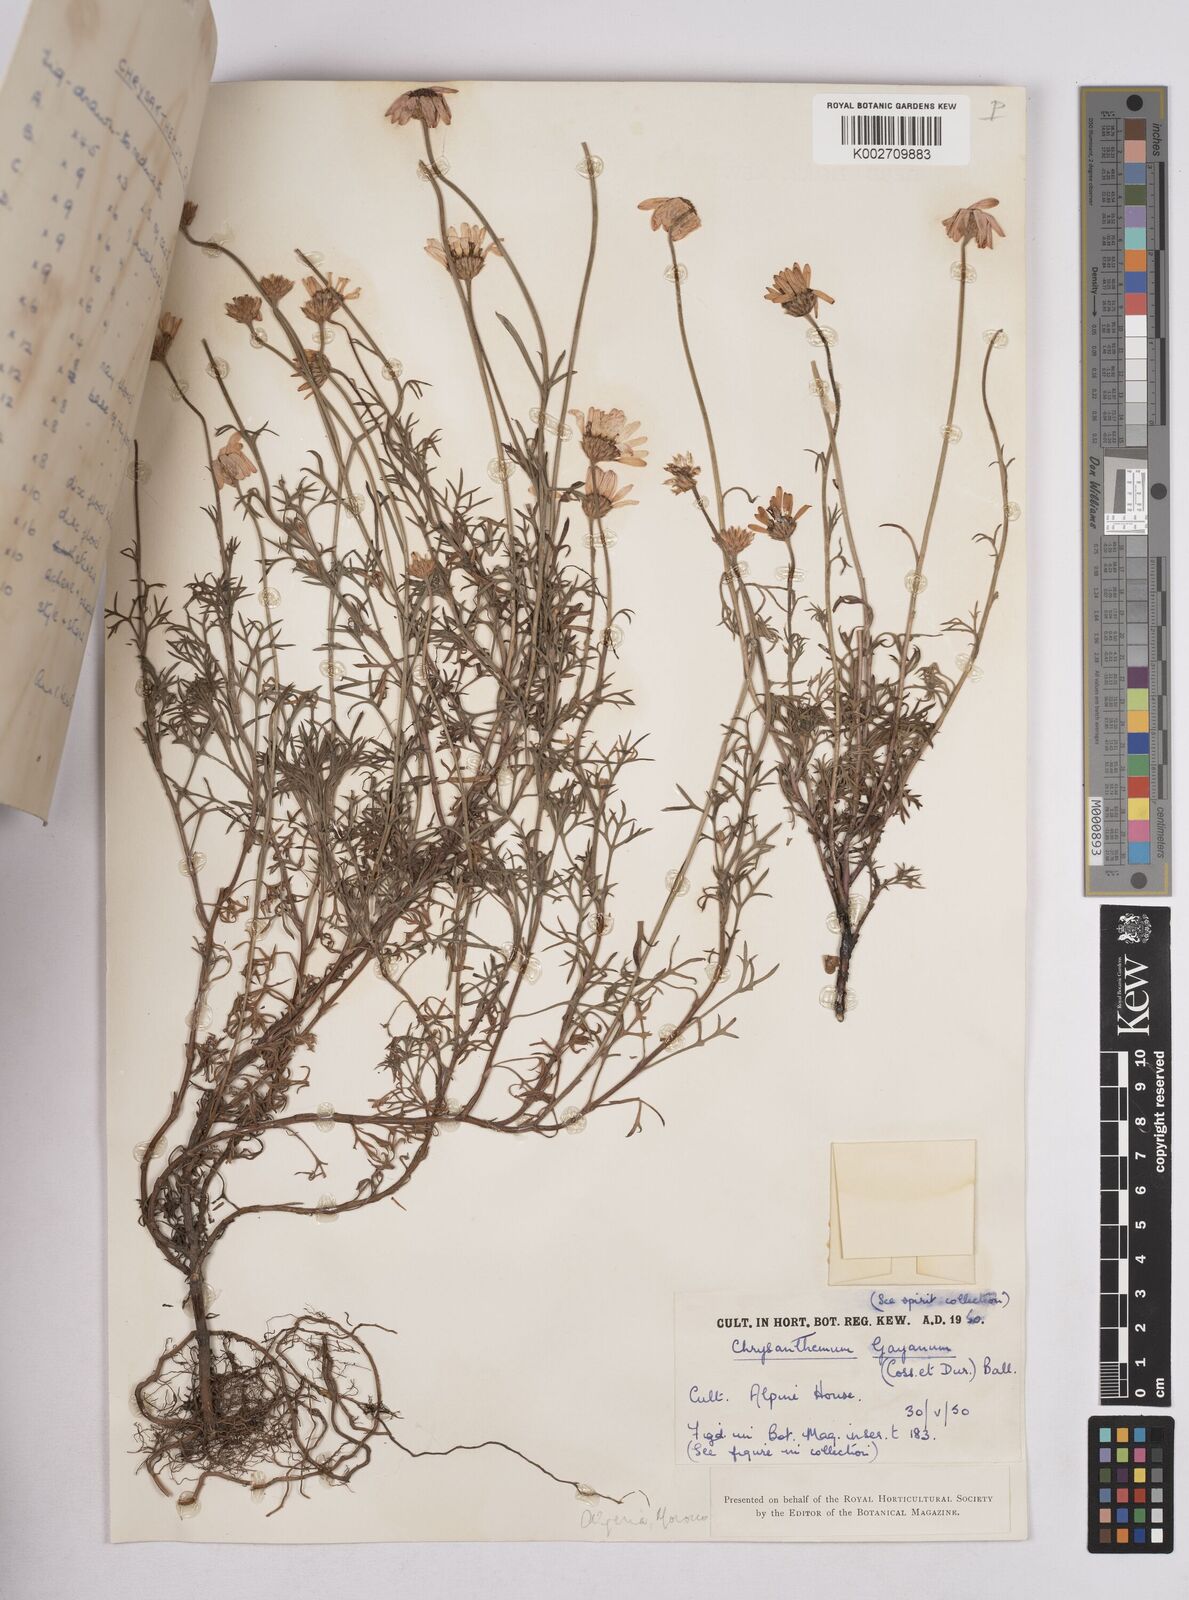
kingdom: Plantae
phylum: Tracheophyta
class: Magnoliopsida
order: Asterales
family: Asteraceae
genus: Rhodanthemum
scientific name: Rhodanthemum gayanum
